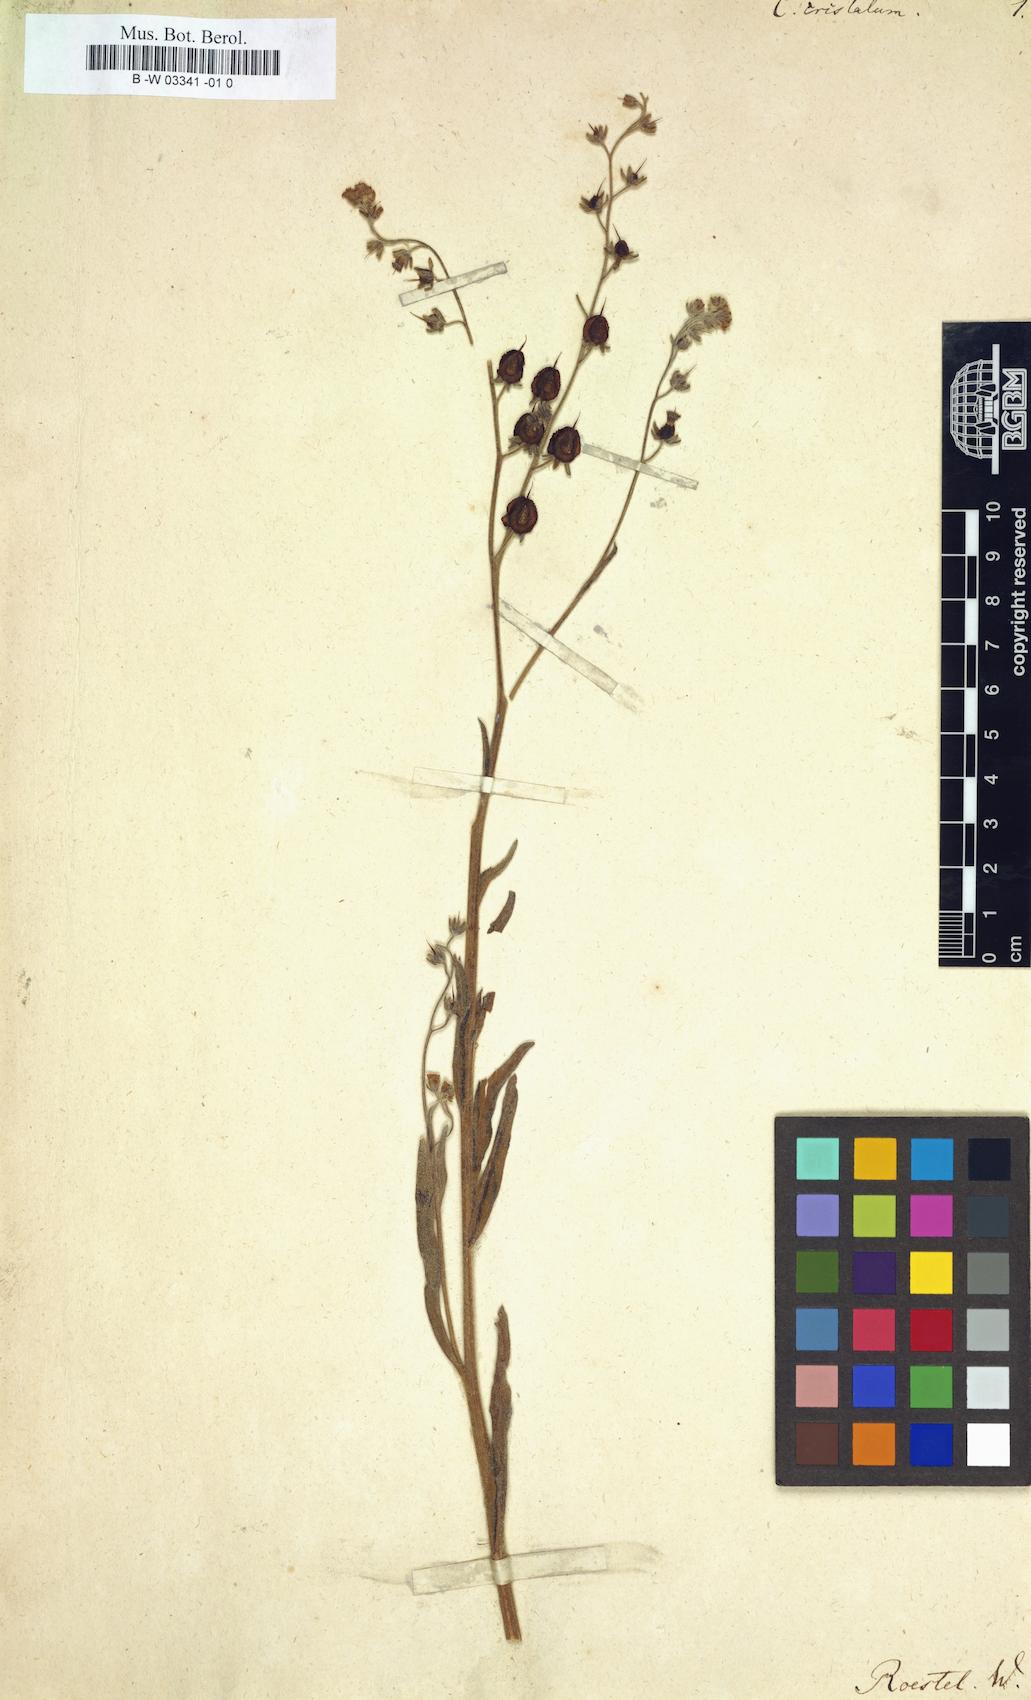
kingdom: Plantae
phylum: Tracheophyta
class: Magnoliopsida
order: Boraginales
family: Boraginaceae
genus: Paracaryum
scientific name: Paracaryum cristatum
